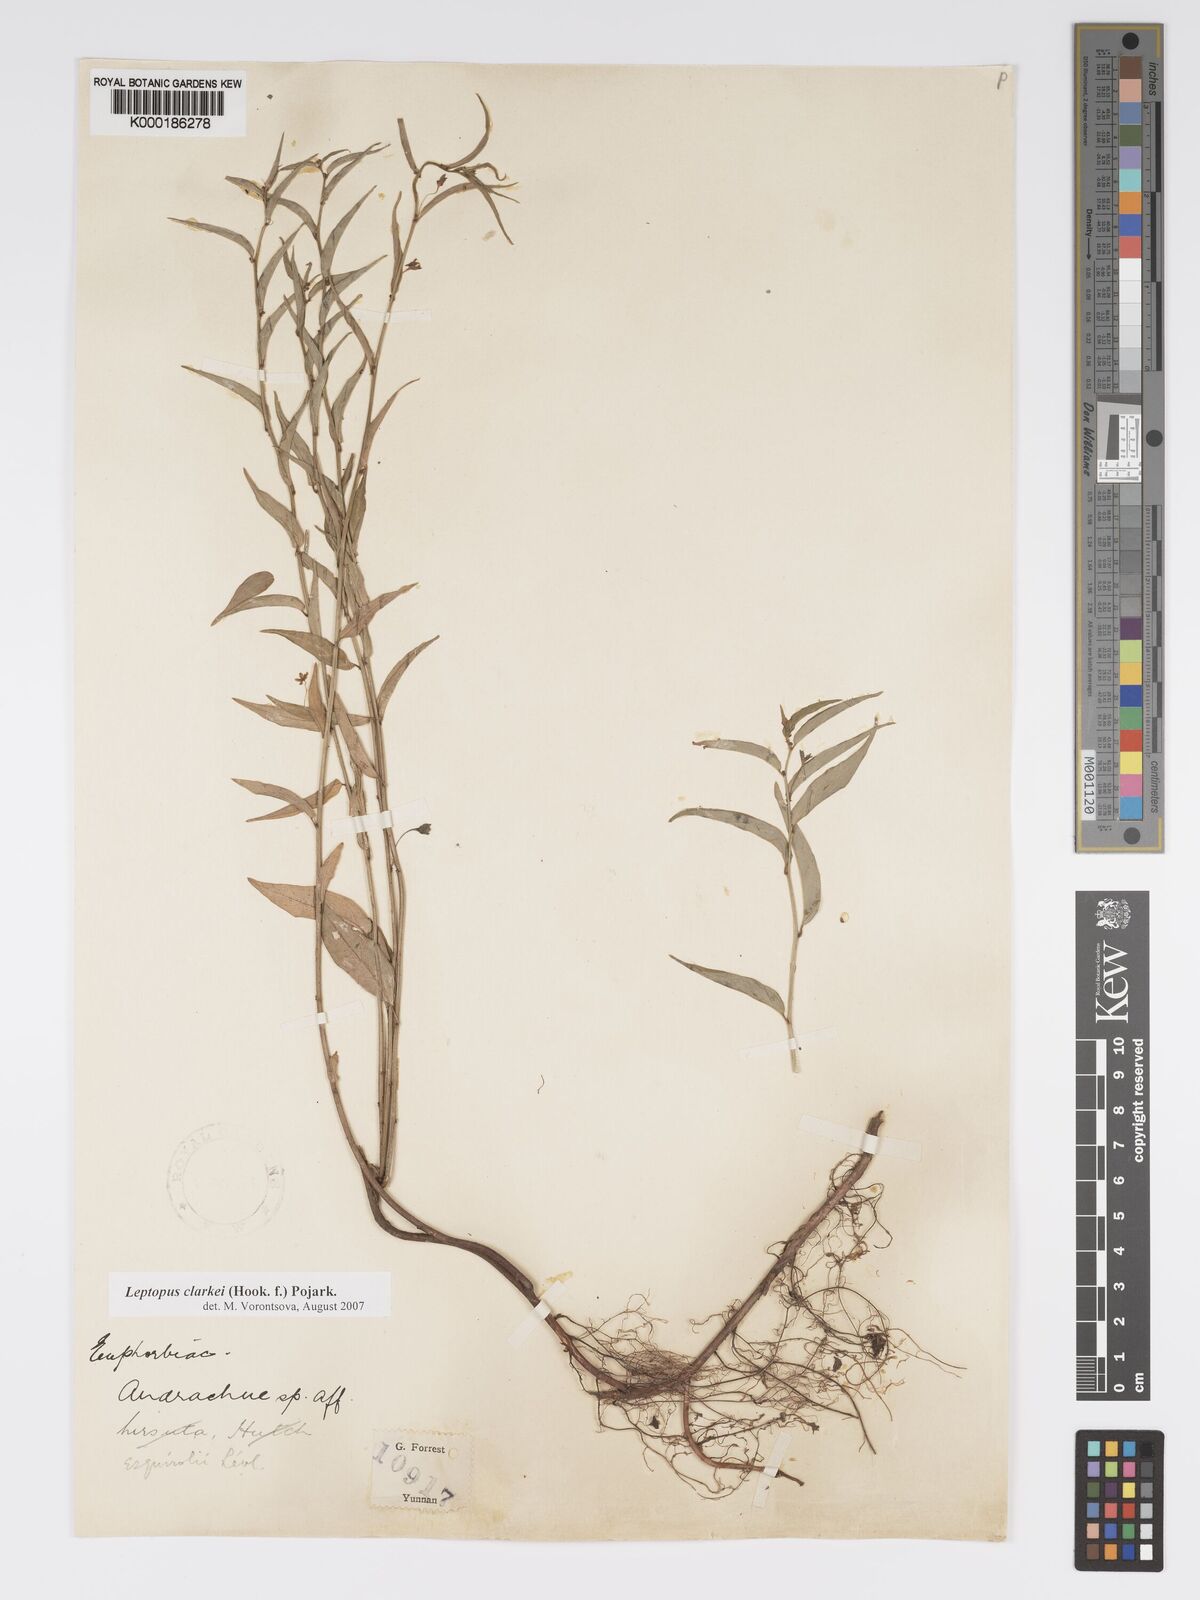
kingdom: Plantae
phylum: Tracheophyta
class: Magnoliopsida
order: Malpighiales
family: Phyllanthaceae
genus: Leptopus
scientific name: Leptopus clarkei
